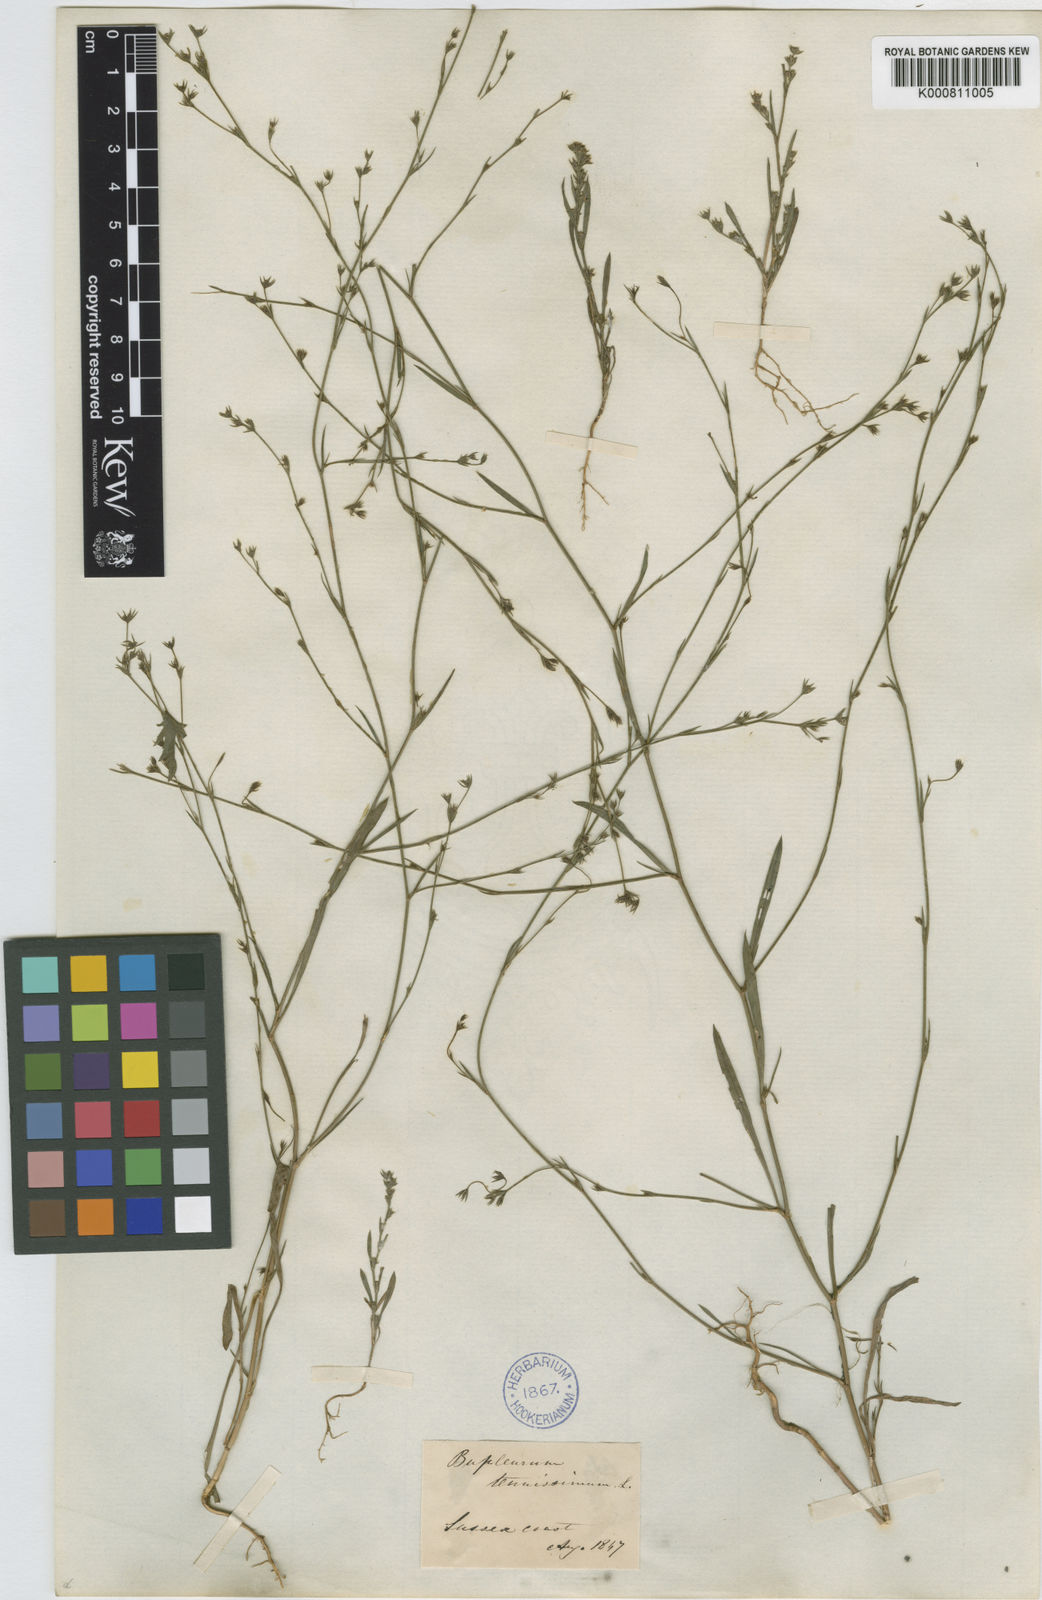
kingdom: Plantae
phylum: Tracheophyta
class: Magnoliopsida
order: Apiales
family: Apiaceae
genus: Bupleurum
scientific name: Bupleurum tenuissimum
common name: Slender hare's-ear
